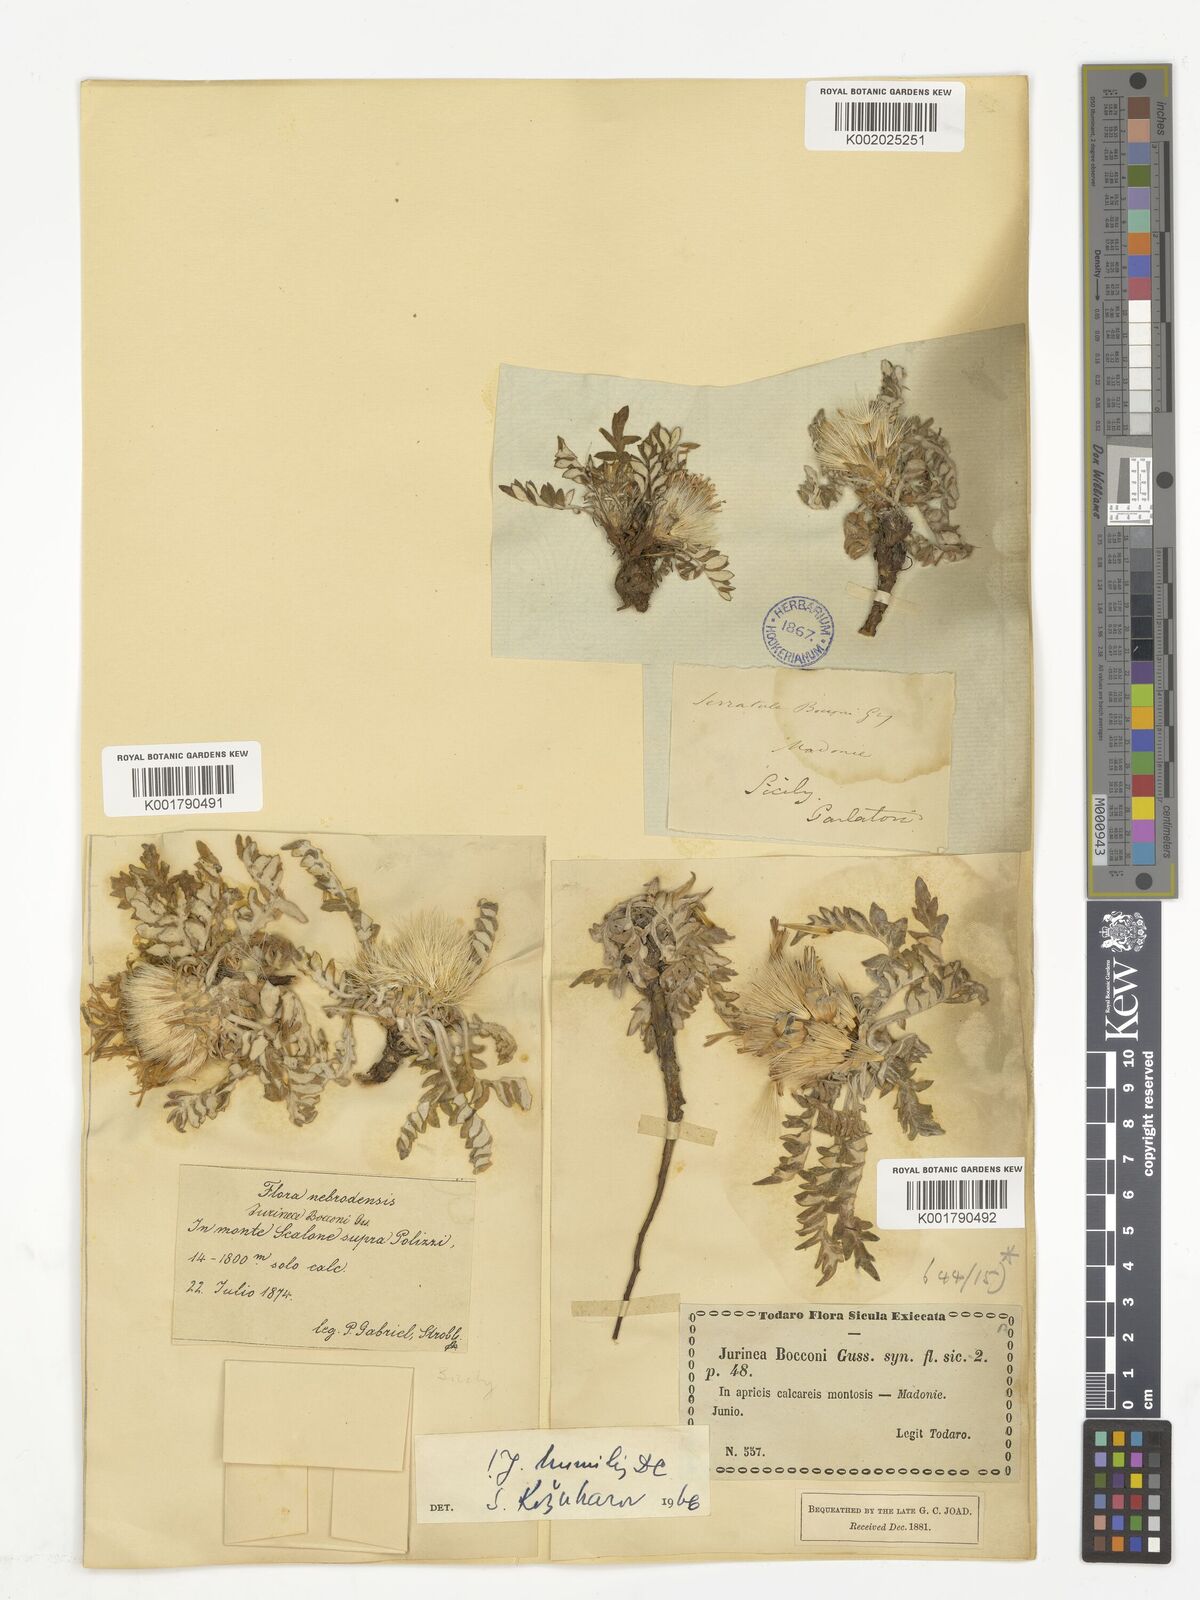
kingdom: Plantae
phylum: Tracheophyta
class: Magnoliopsida
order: Asterales
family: Asteraceae
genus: Jurinea
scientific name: Jurinea humilis
